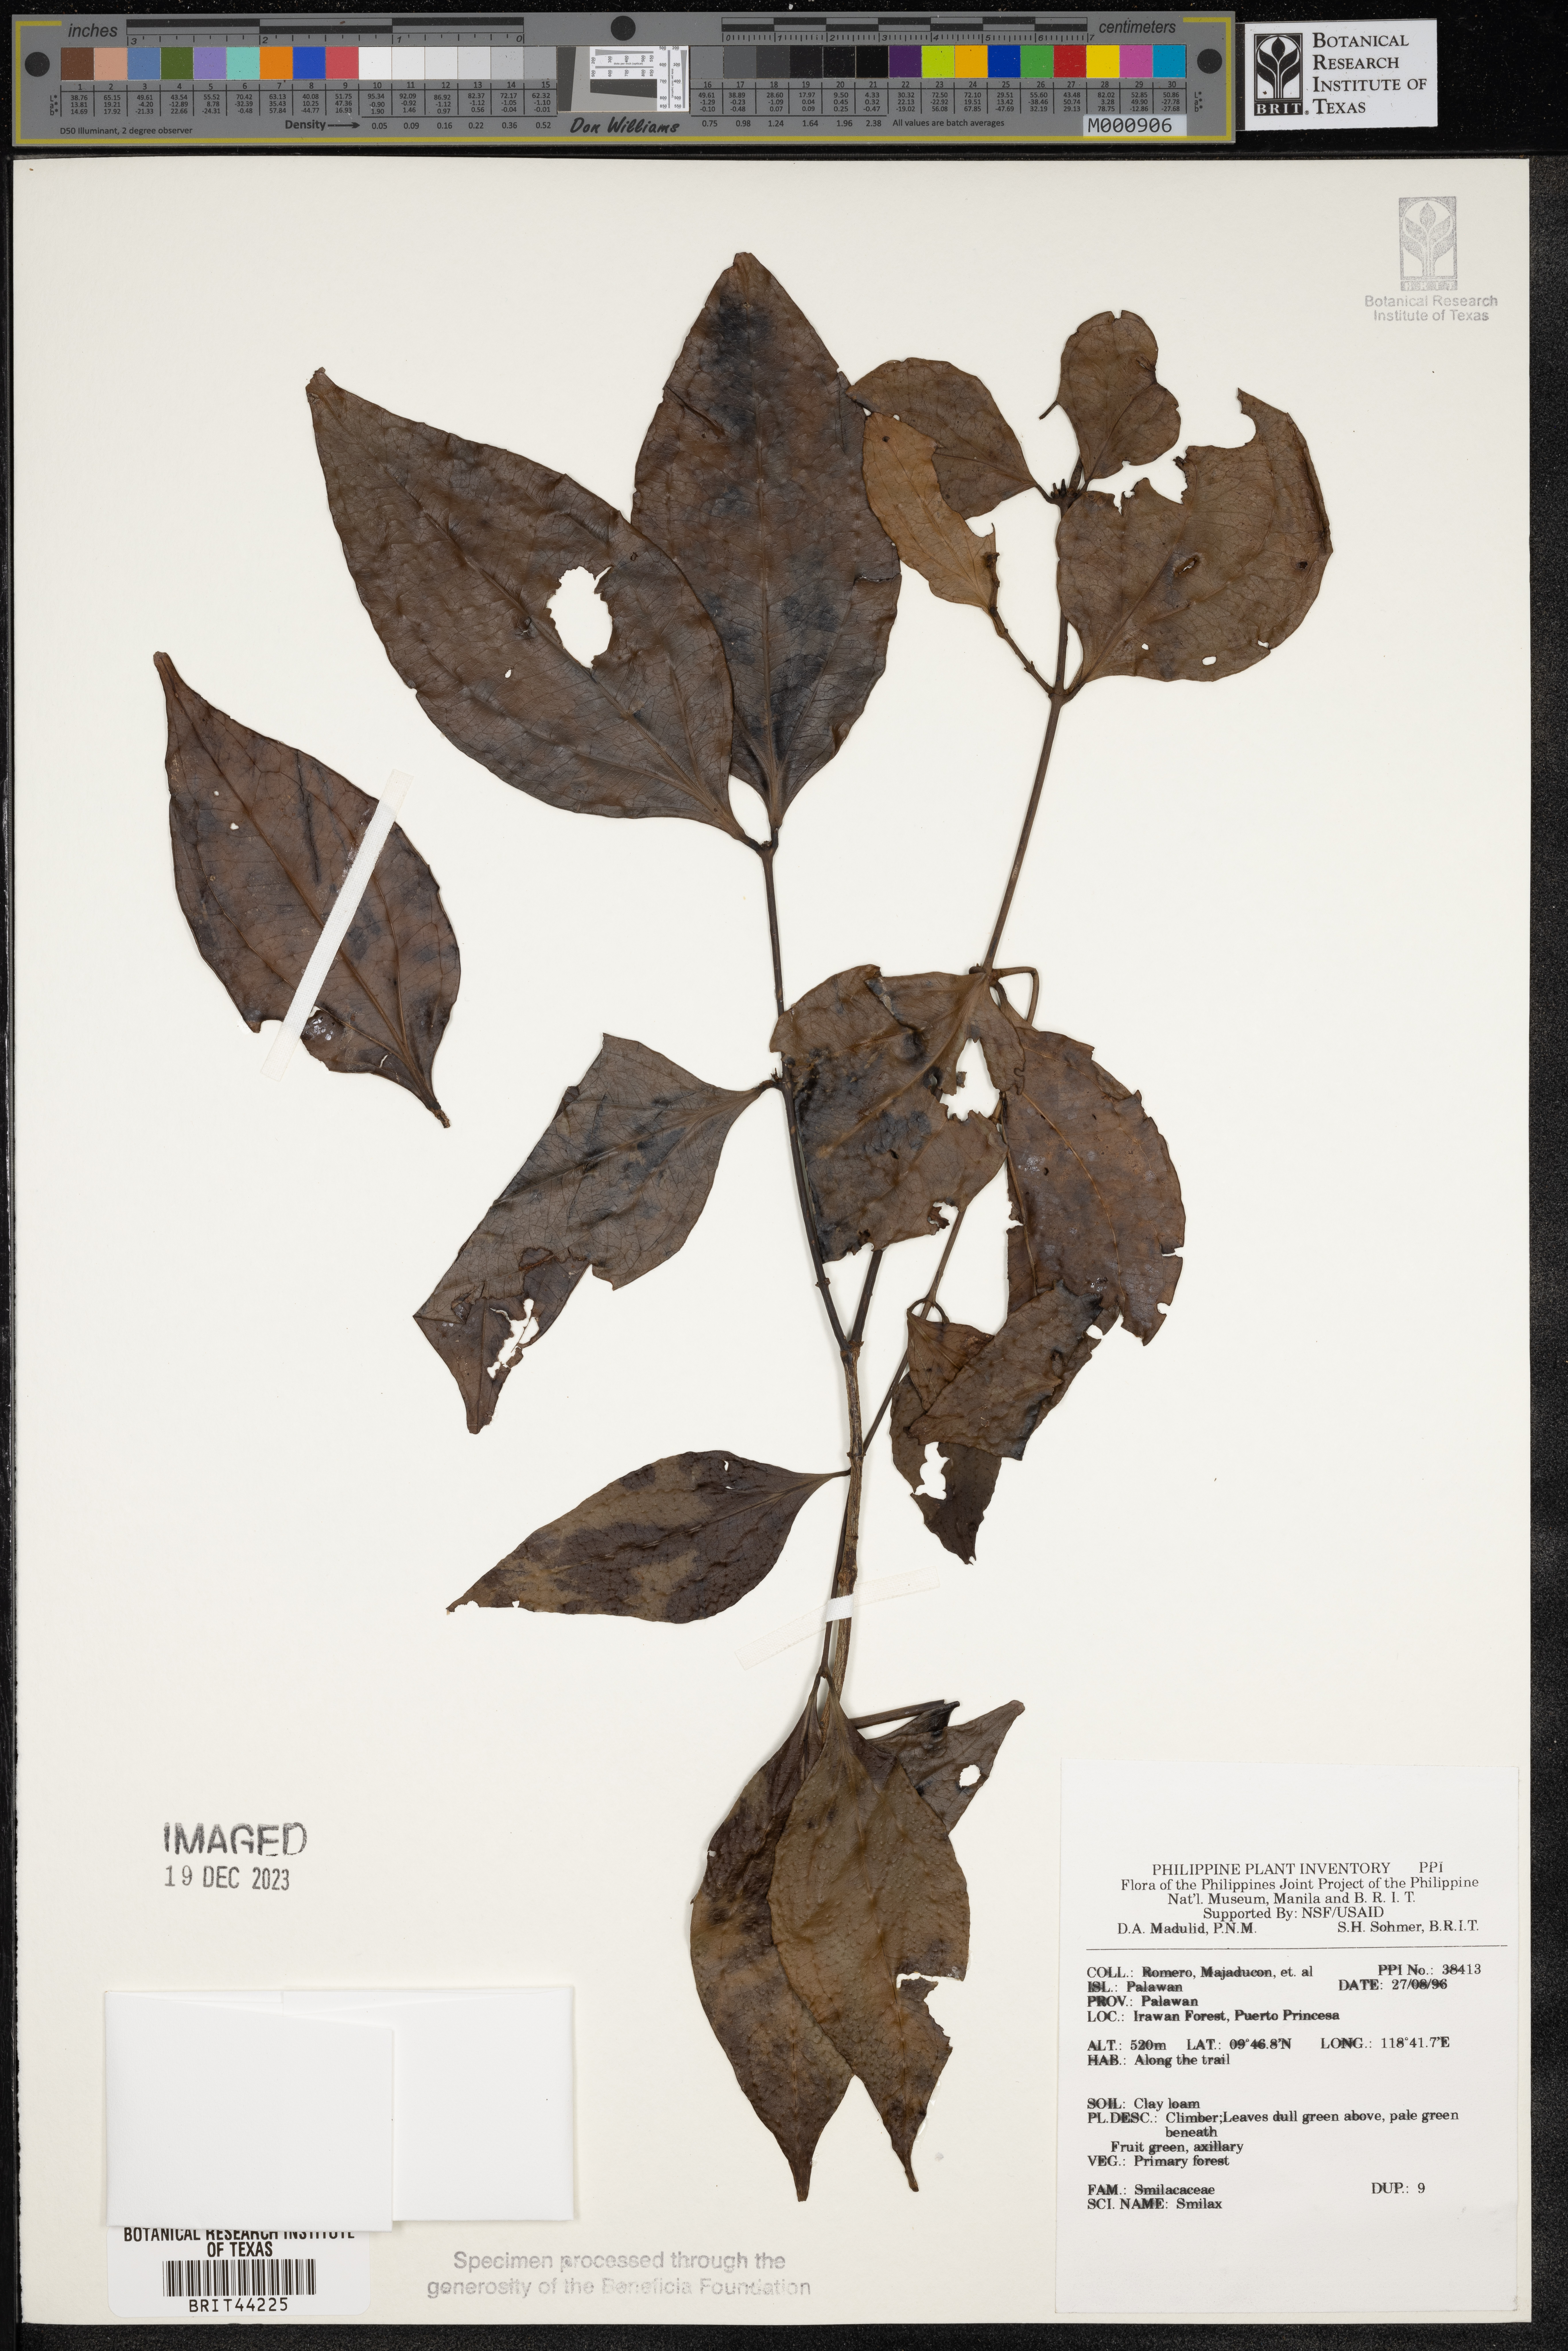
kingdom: Plantae
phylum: Tracheophyta
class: Liliopsida
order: Liliales
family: Smilacaceae
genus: Smilax
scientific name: Smilax
